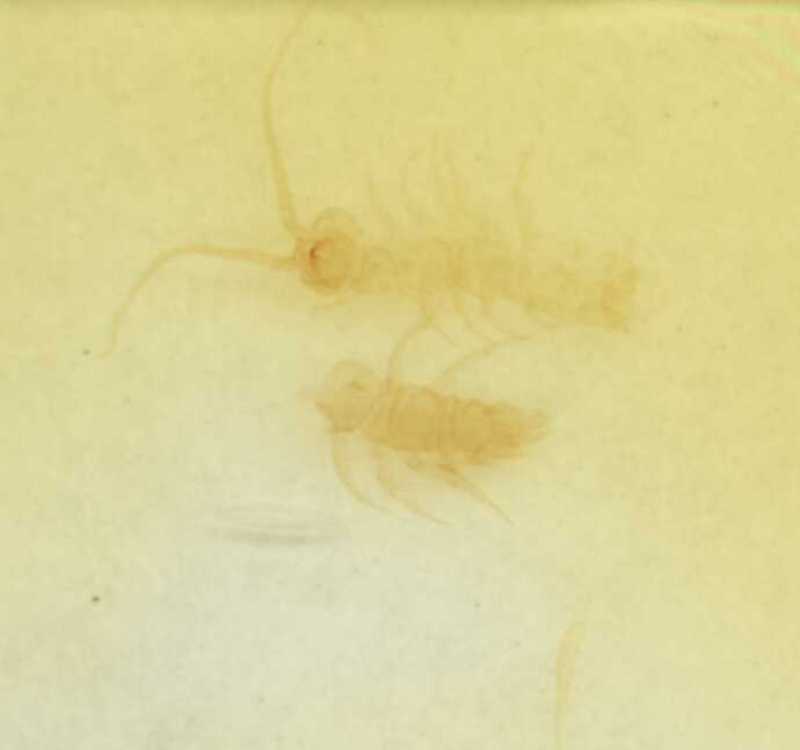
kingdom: Animalia
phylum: Arthropoda
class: Chilopoda
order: Lithobiomorpha
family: Lithobiidae
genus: Lithobius
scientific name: Lithobius cassinensis
